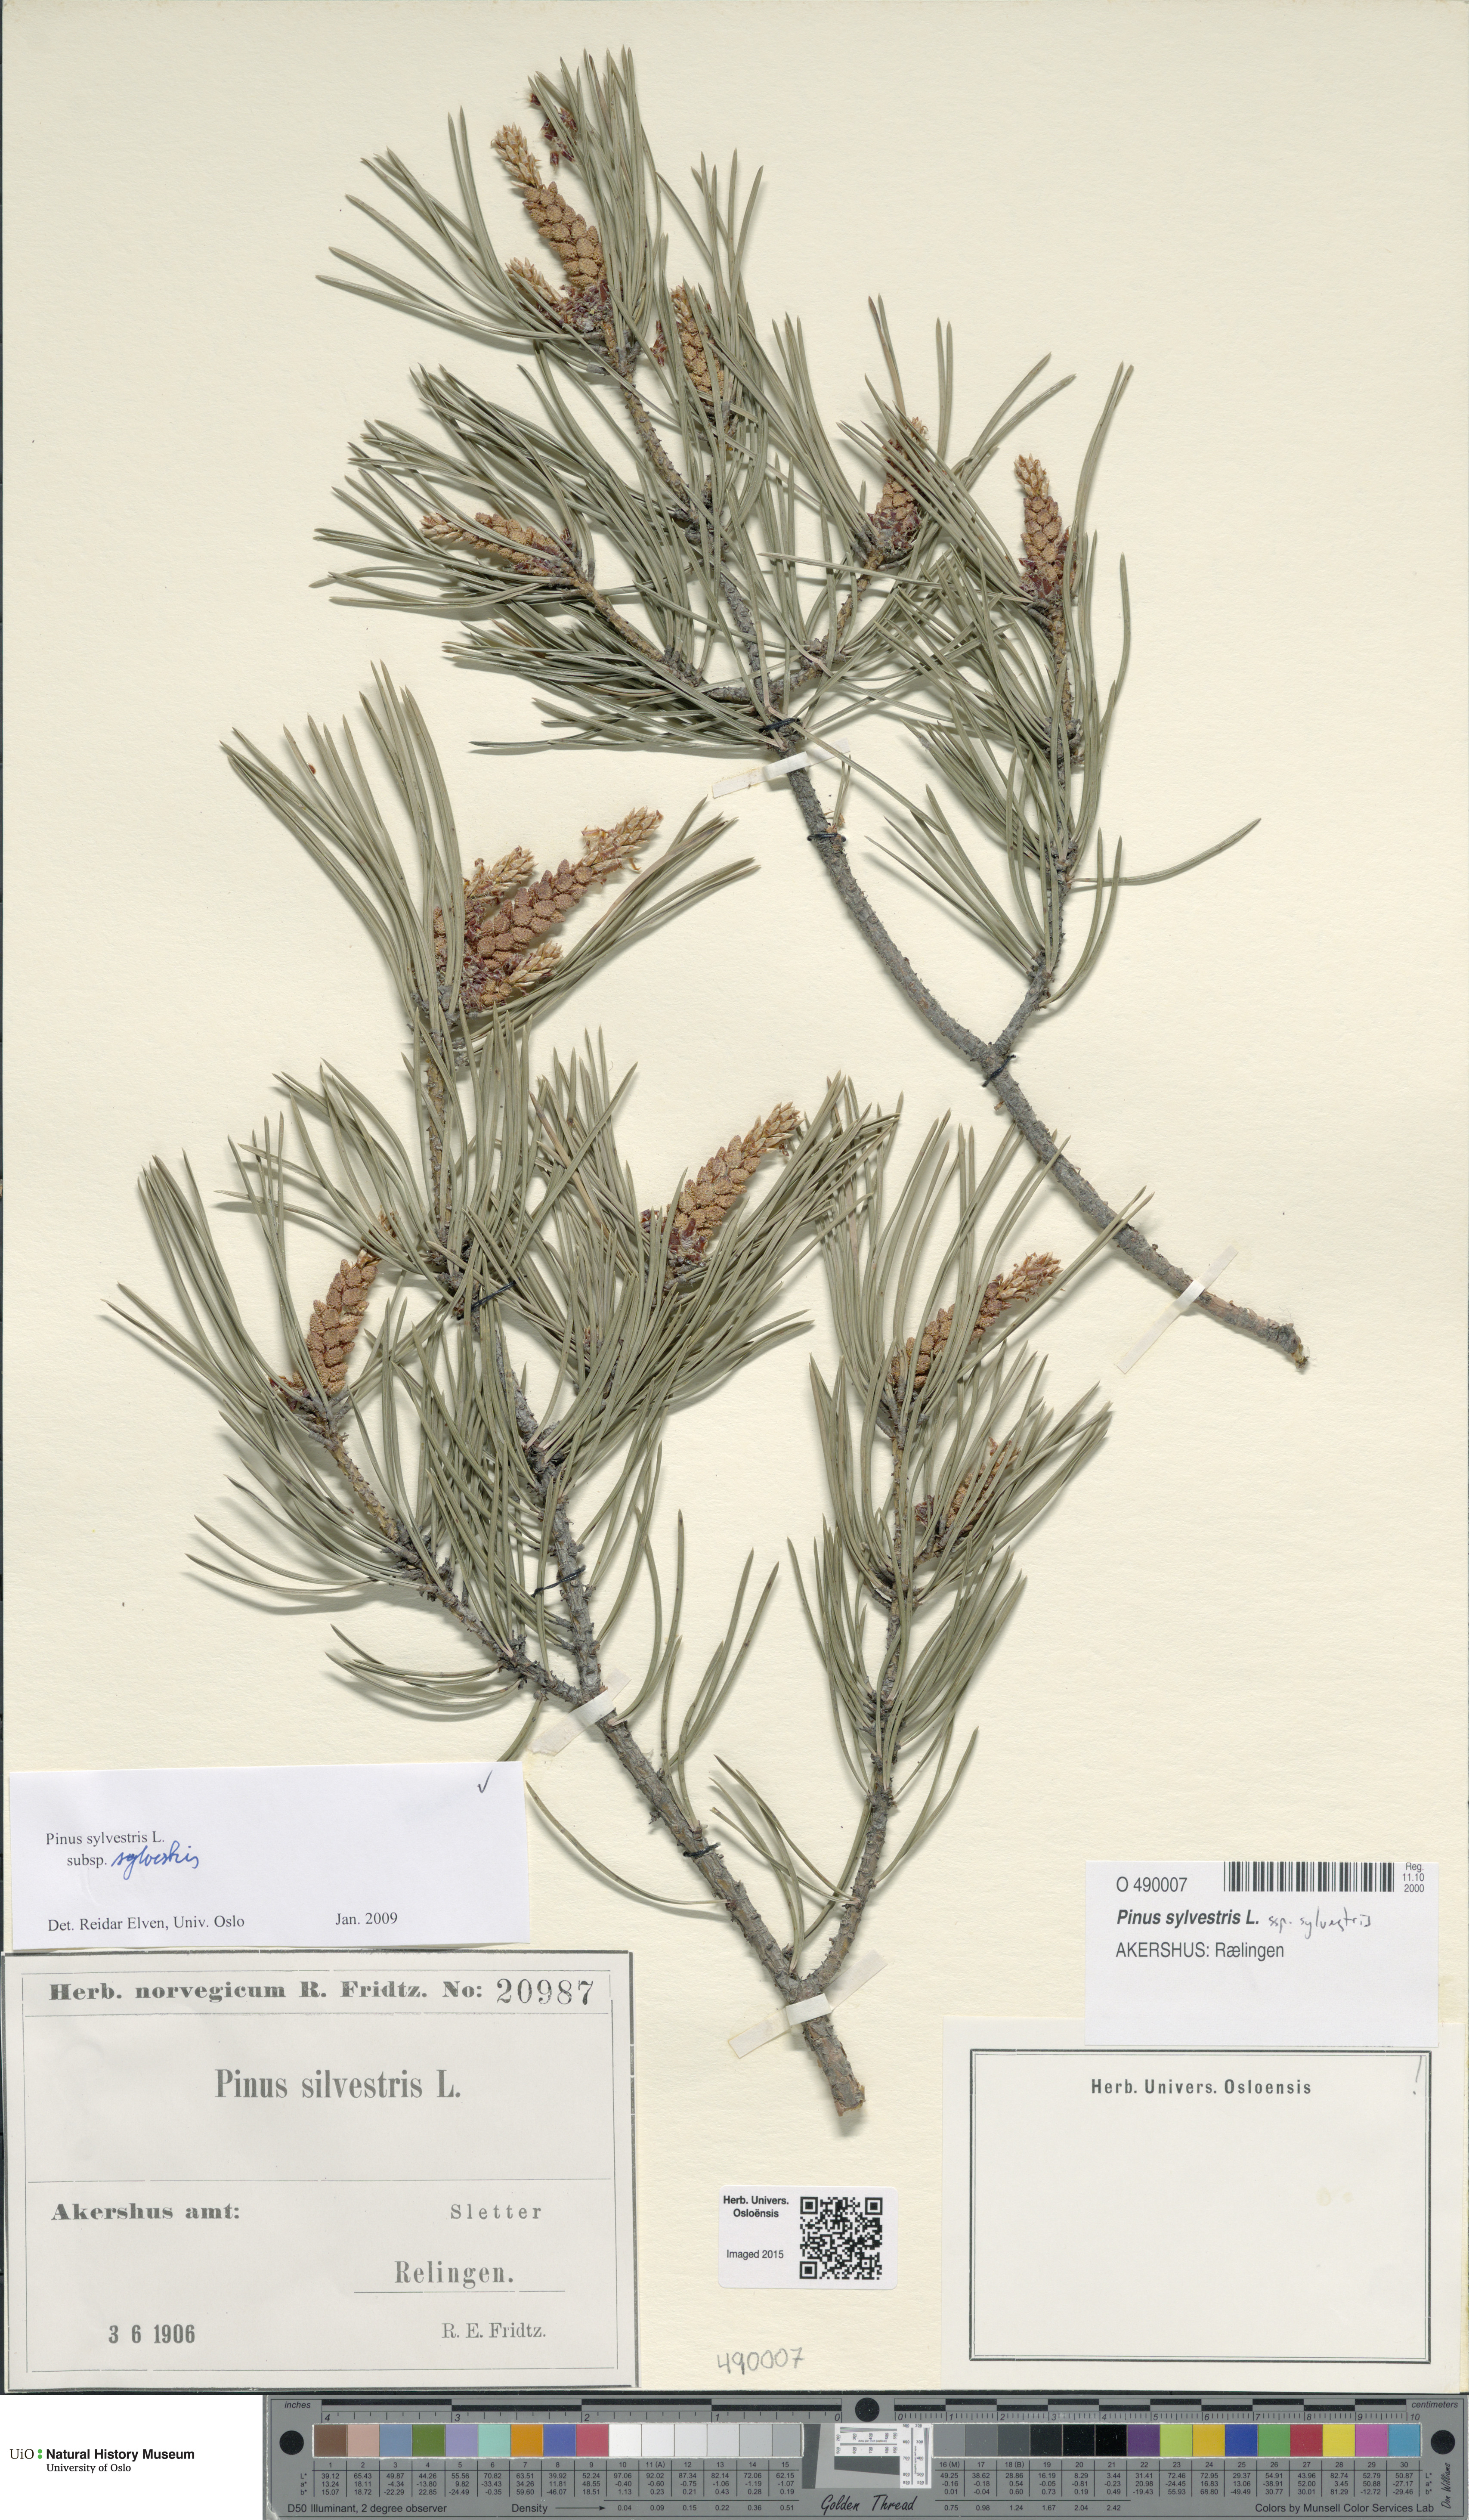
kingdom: Plantae
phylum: Tracheophyta
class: Pinopsida
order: Pinales
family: Pinaceae
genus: Pinus
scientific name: Pinus sylvestris
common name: Scots pine
